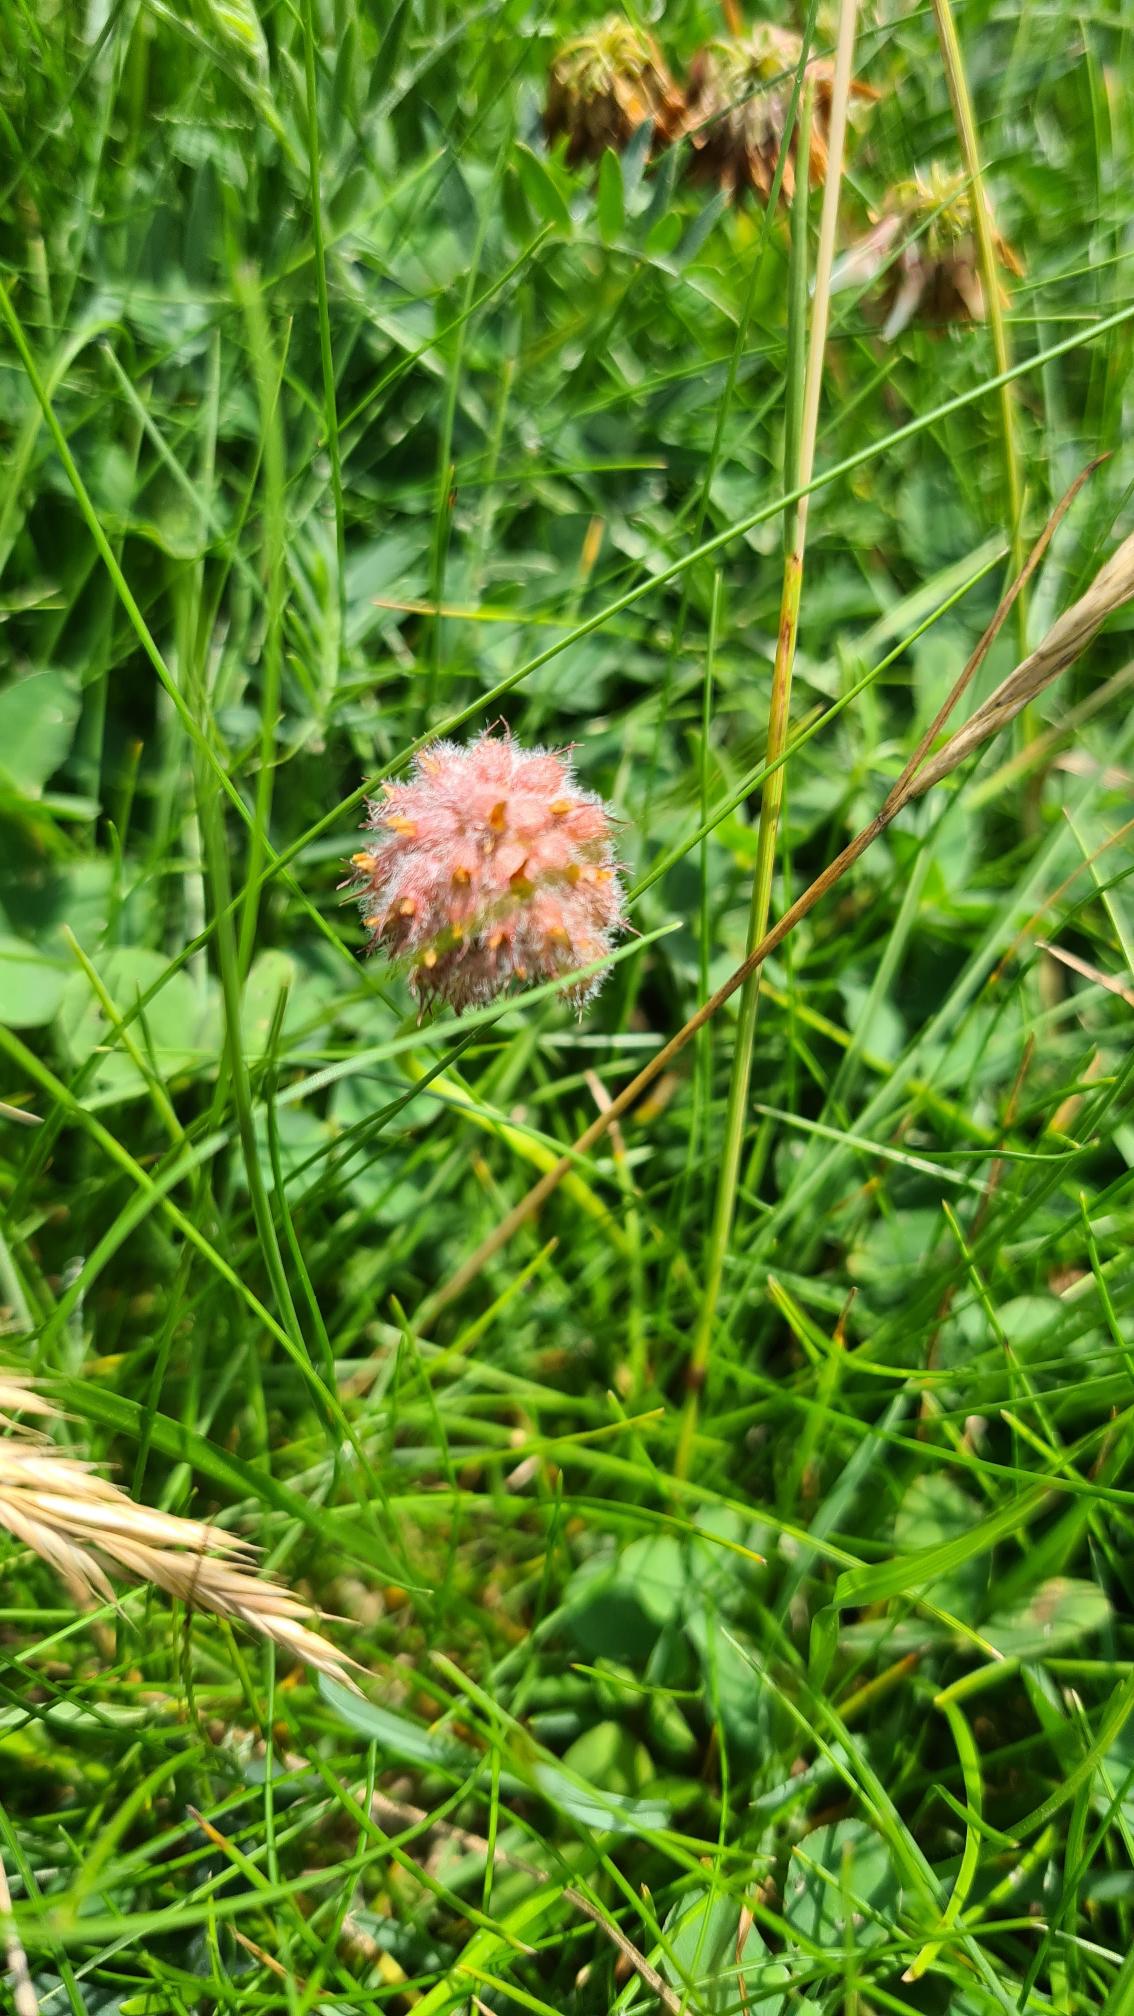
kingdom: Plantae
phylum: Tracheophyta
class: Magnoliopsida
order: Fabales
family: Fabaceae
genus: Trifolium
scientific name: Trifolium fragiferum
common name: Jordbær-kløver
